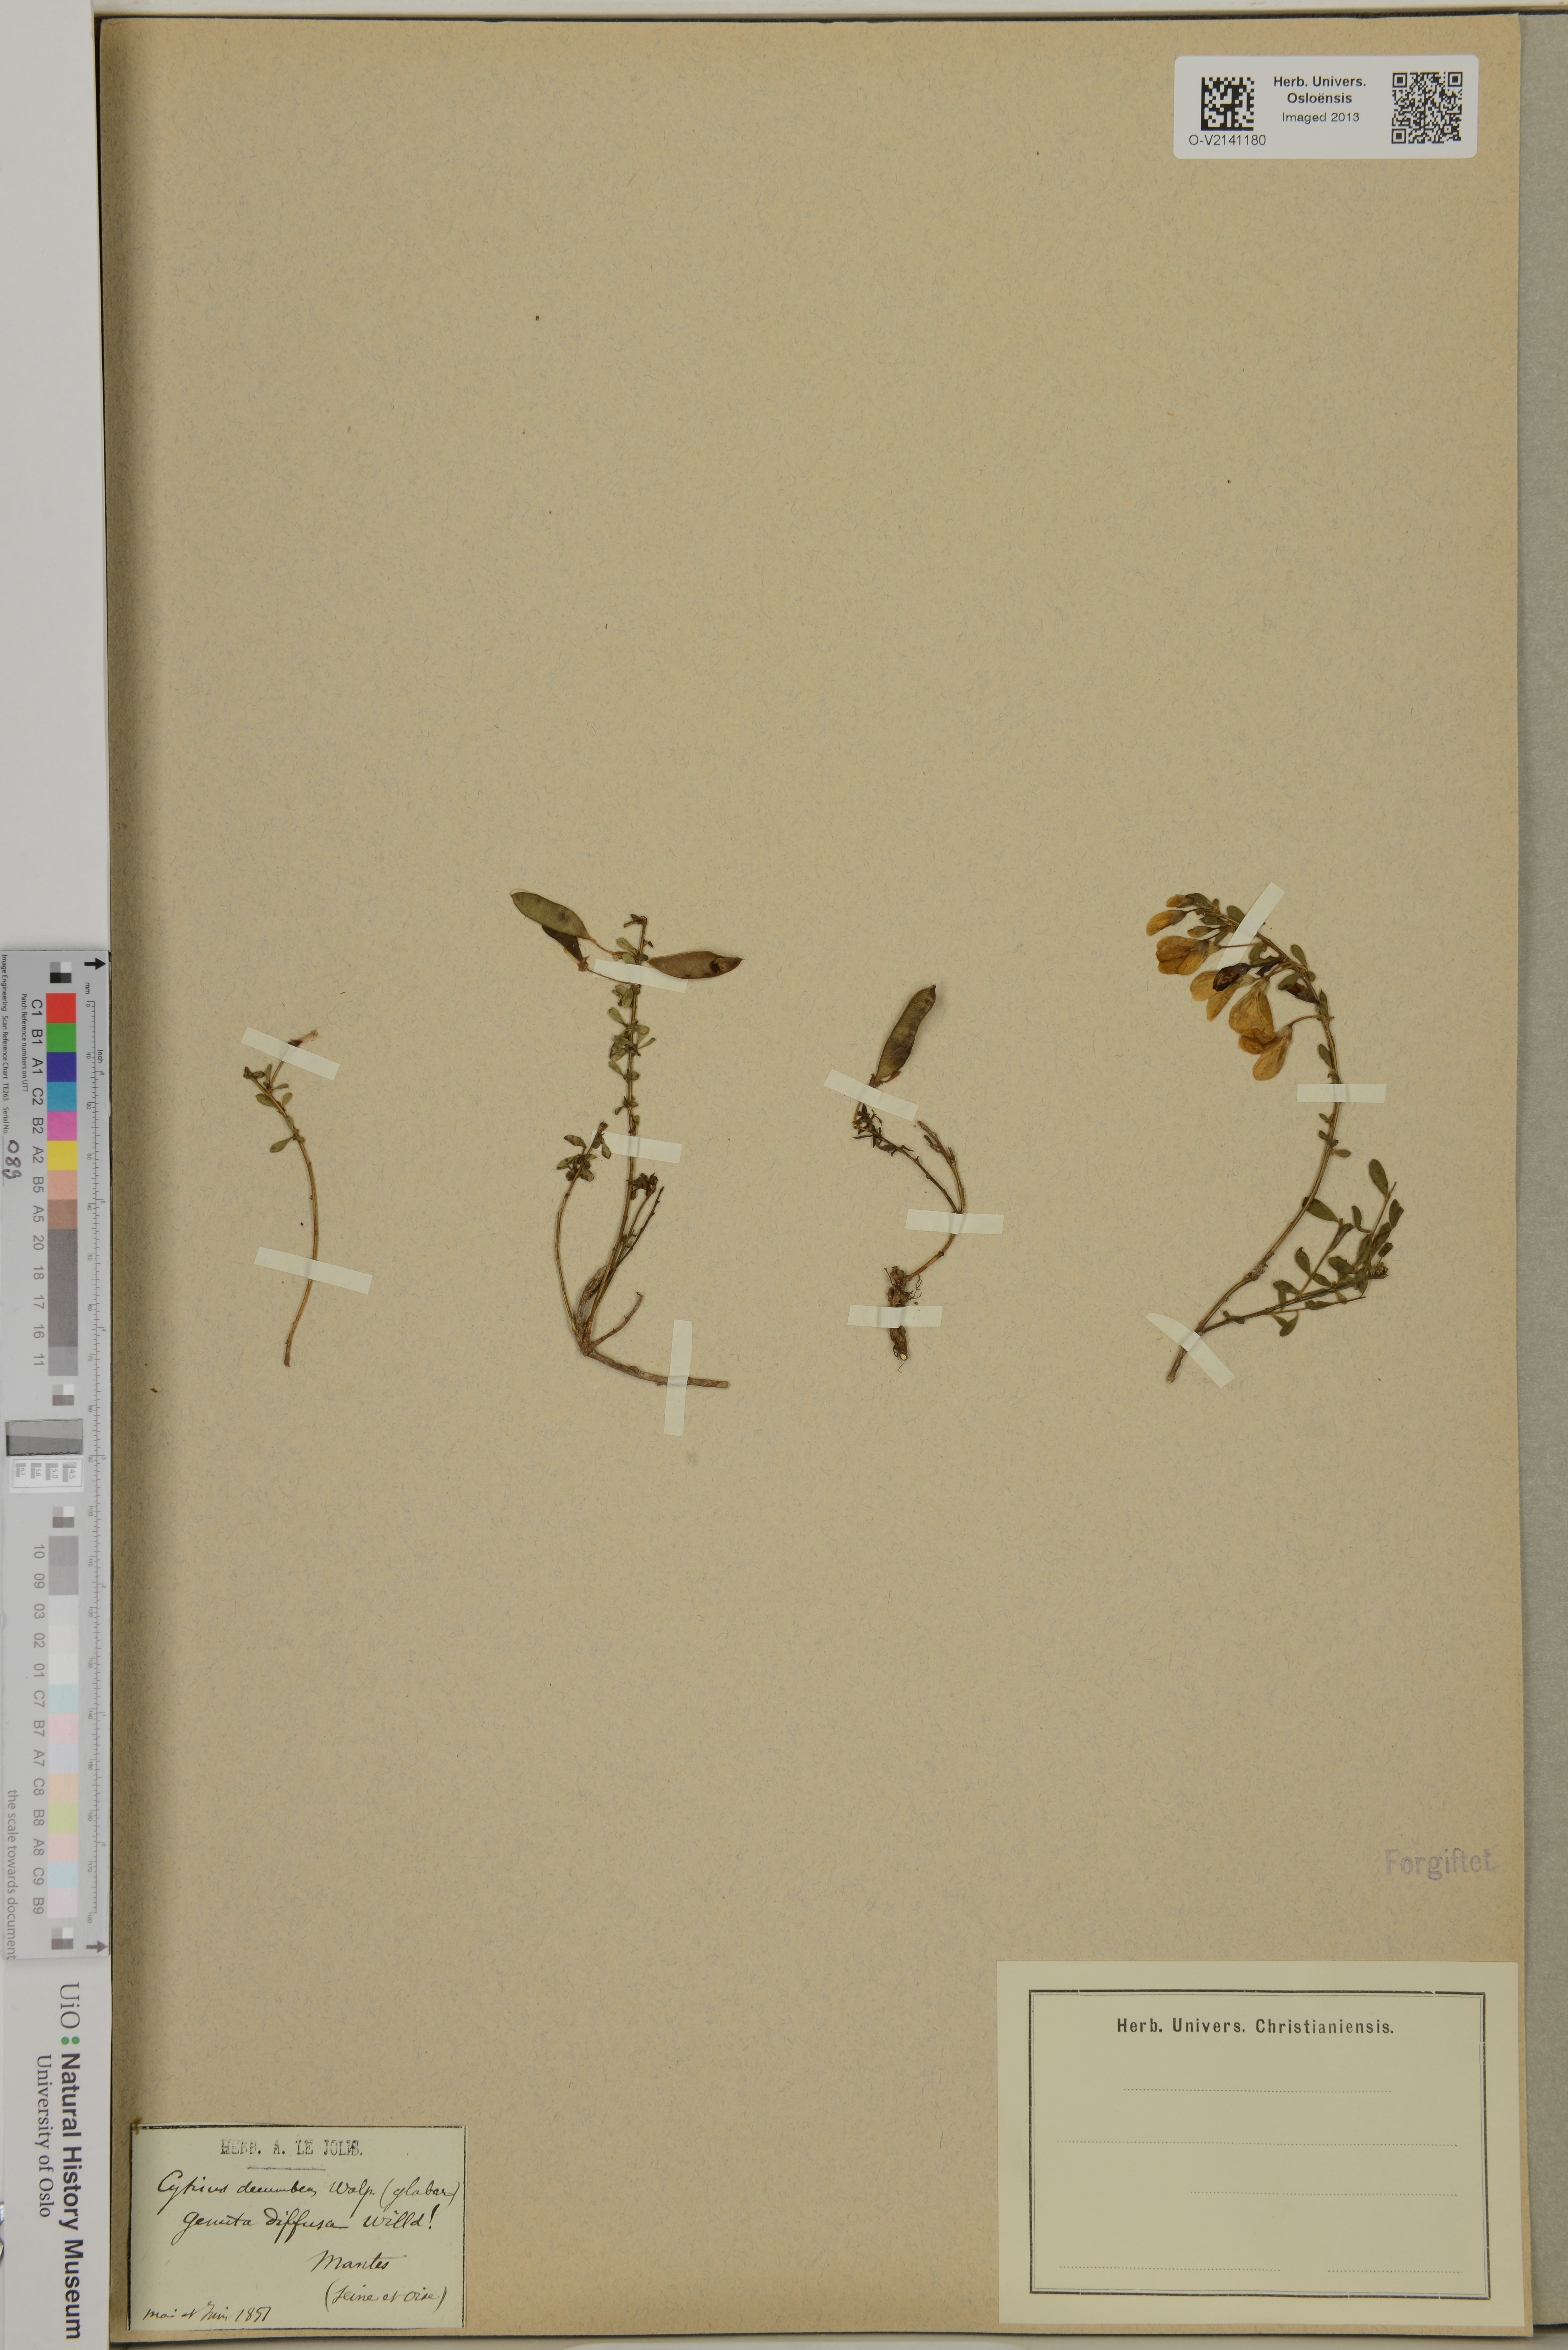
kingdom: Plantae
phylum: Tracheophyta
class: Magnoliopsida
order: Fabales
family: Fabaceae
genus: Cytisus
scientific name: Cytisus decumbens
